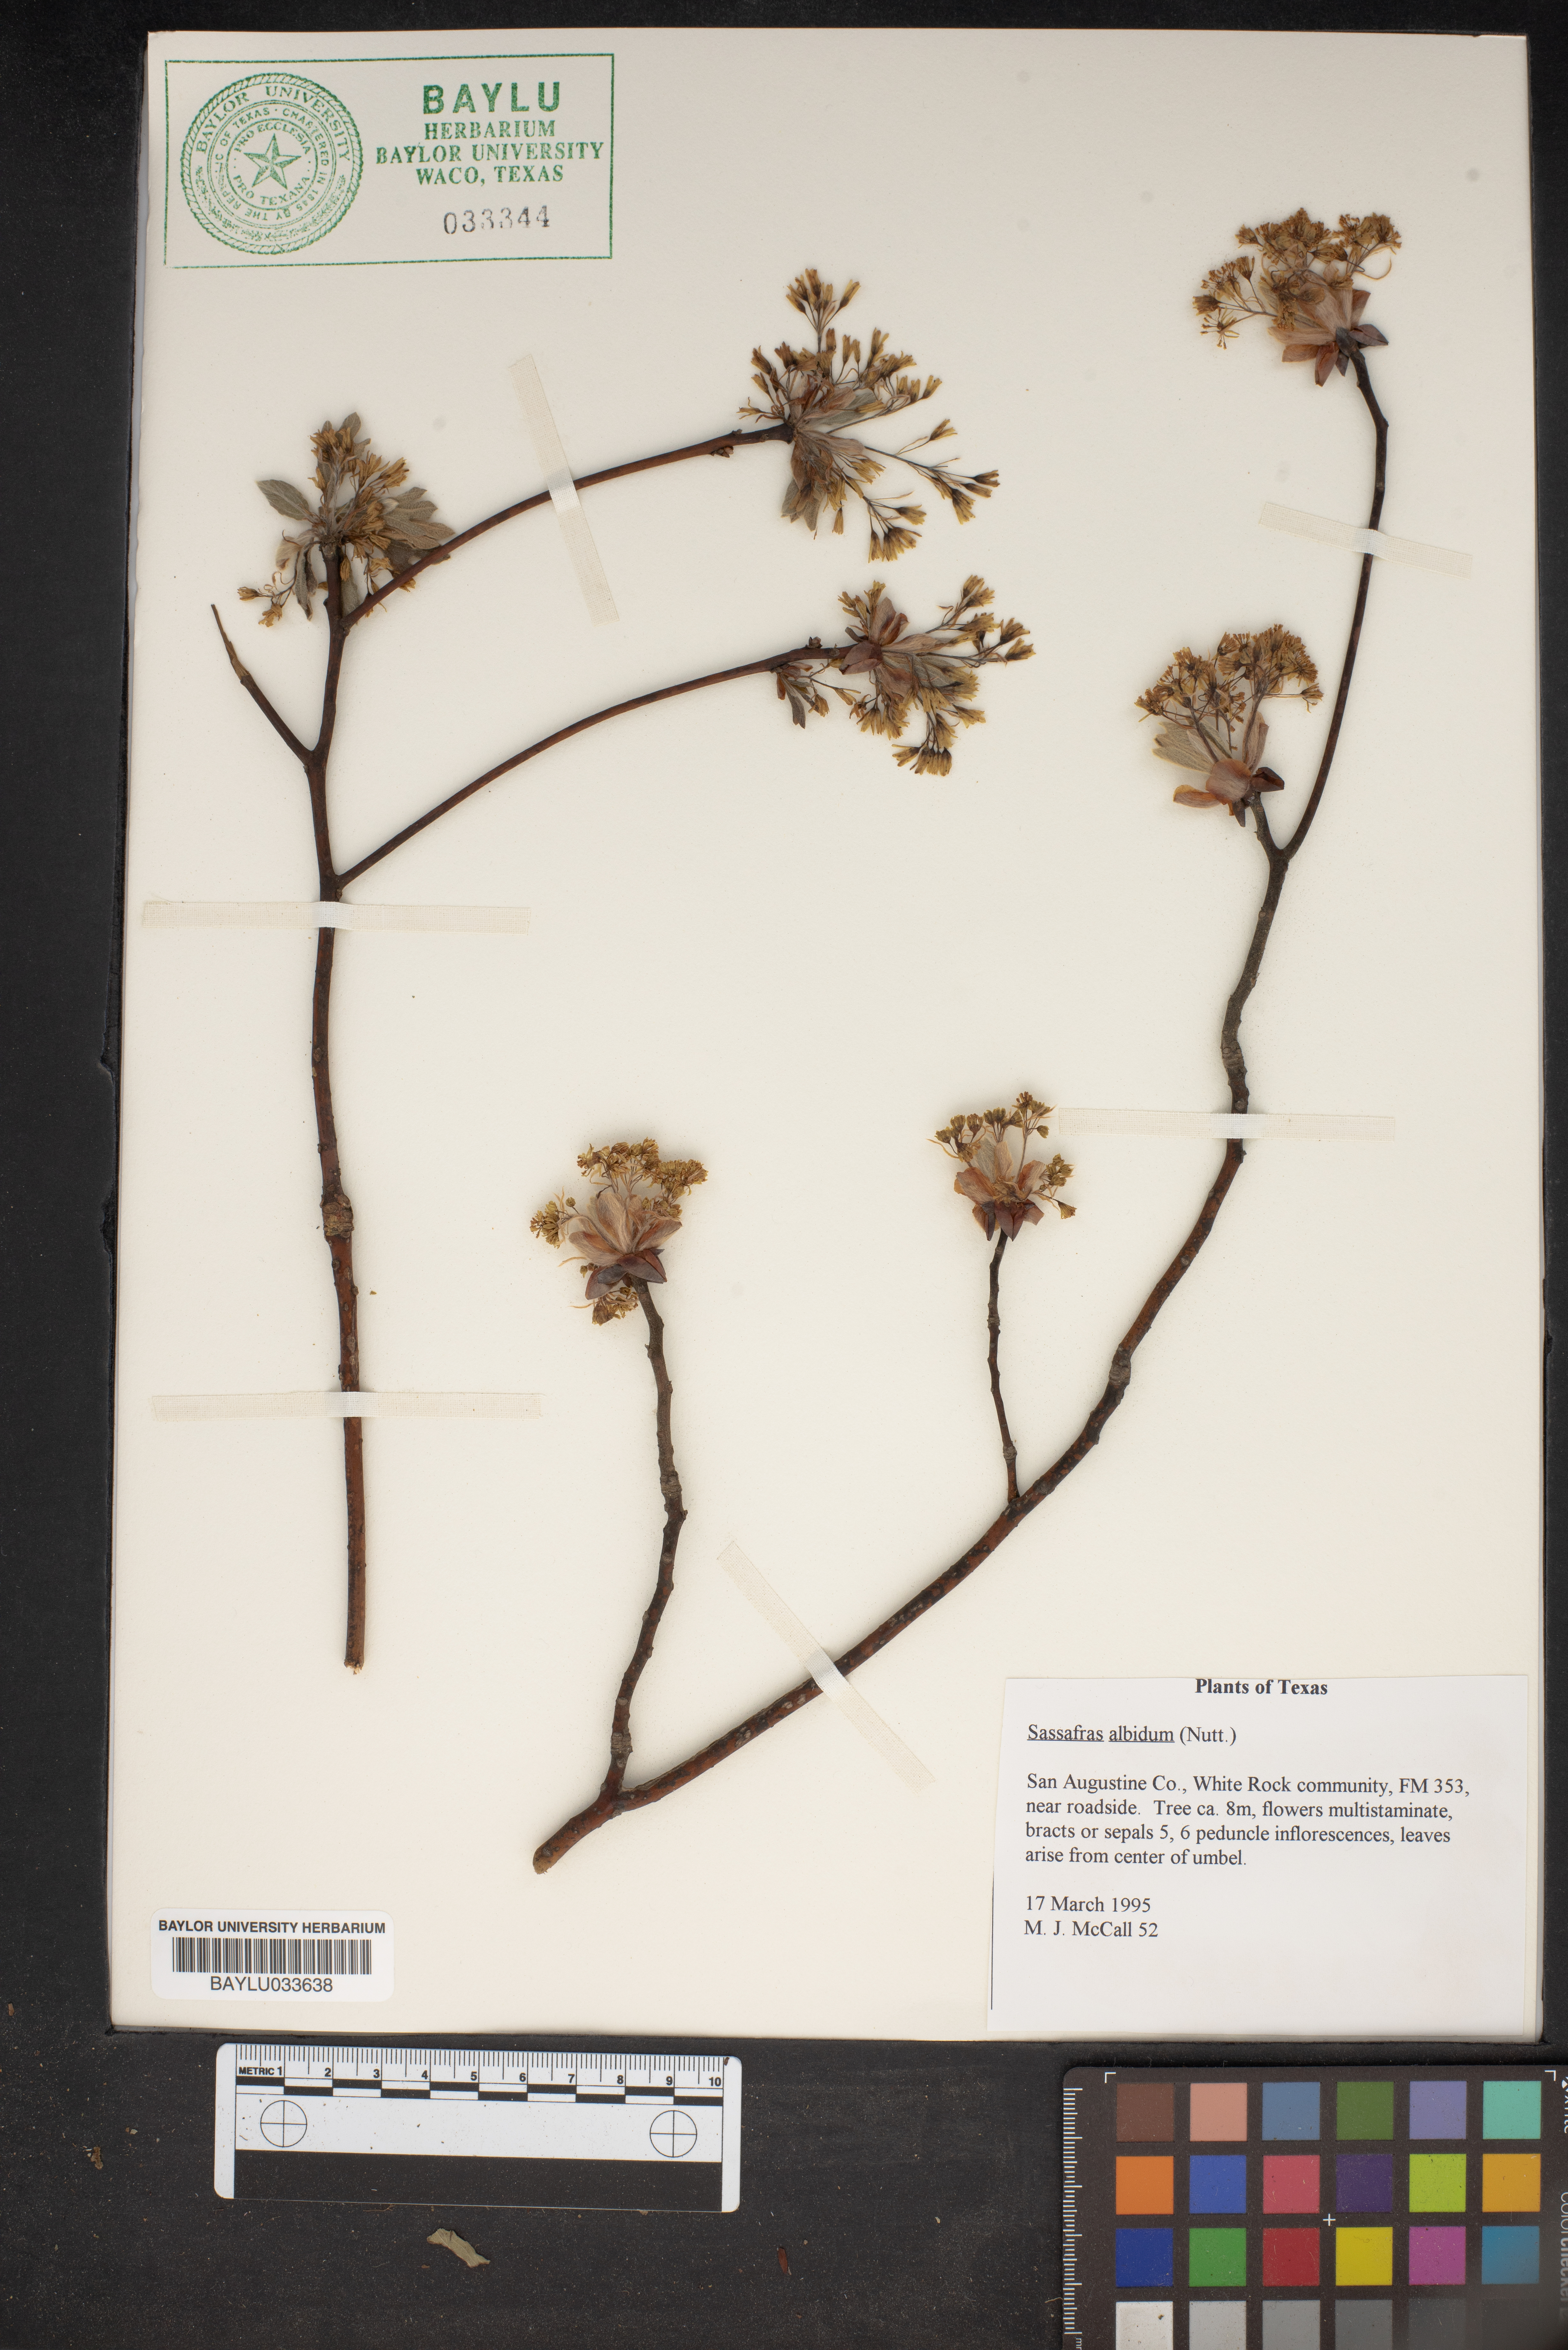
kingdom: Plantae
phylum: Tracheophyta
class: Magnoliopsida
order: Laurales
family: Lauraceae
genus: Sassafras
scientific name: Sassafras albidum
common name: Sassafras
